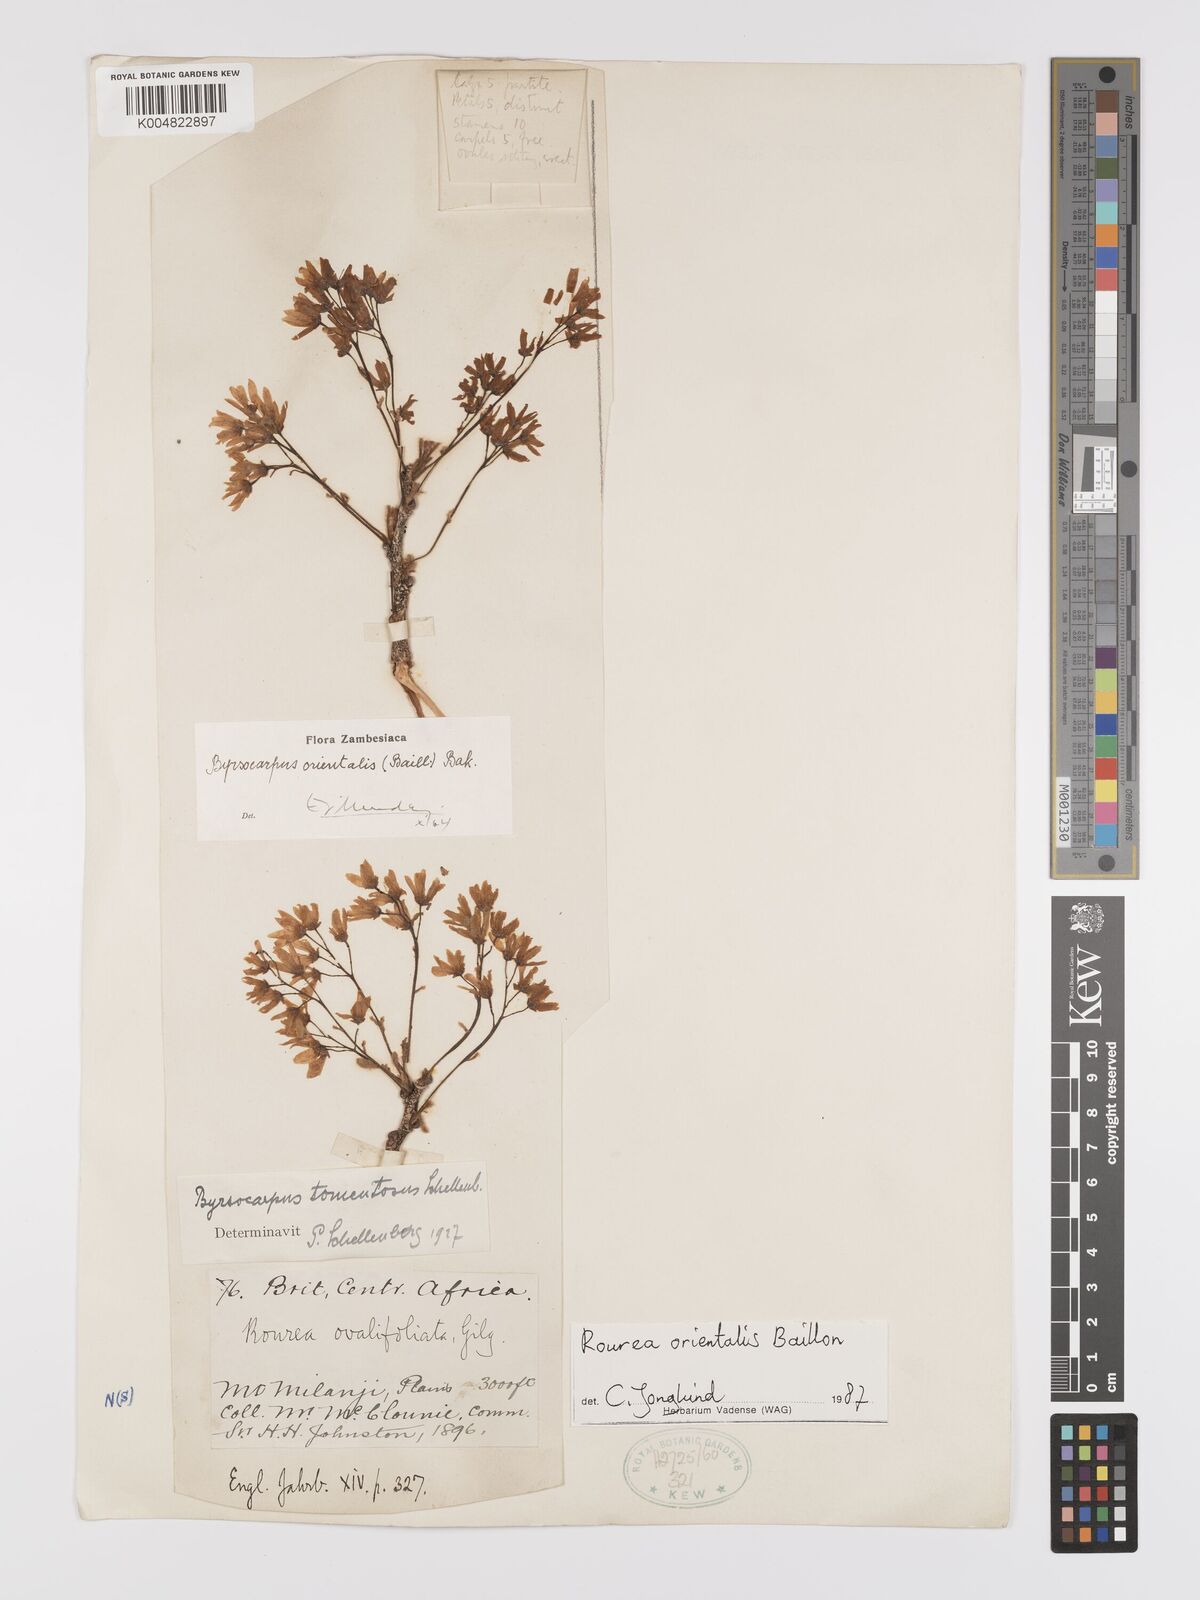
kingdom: Plantae
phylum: Tracheophyta
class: Magnoliopsida
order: Oxalidales
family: Connaraceae
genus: Rourea
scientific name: Rourea orientalis
